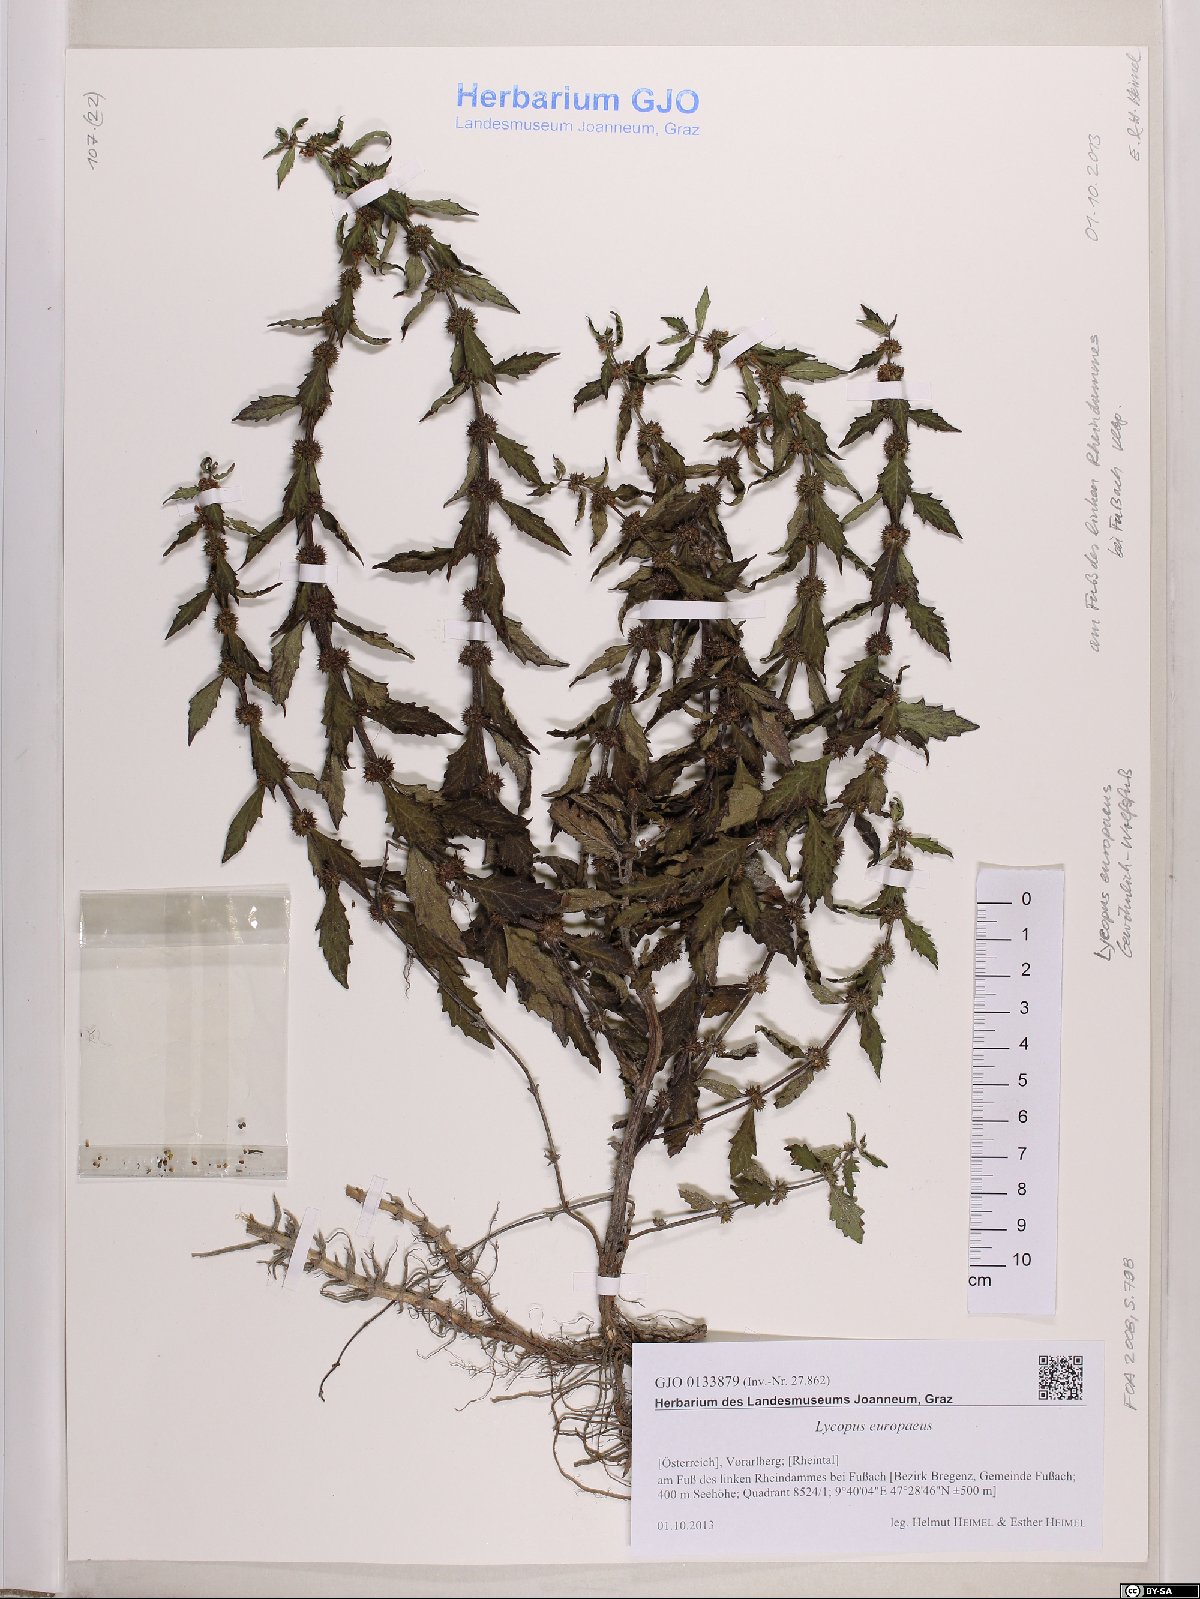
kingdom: Plantae
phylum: Tracheophyta
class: Magnoliopsida
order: Lamiales
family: Lamiaceae
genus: Lycopus
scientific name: Lycopus europaeus
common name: European bugleweed
